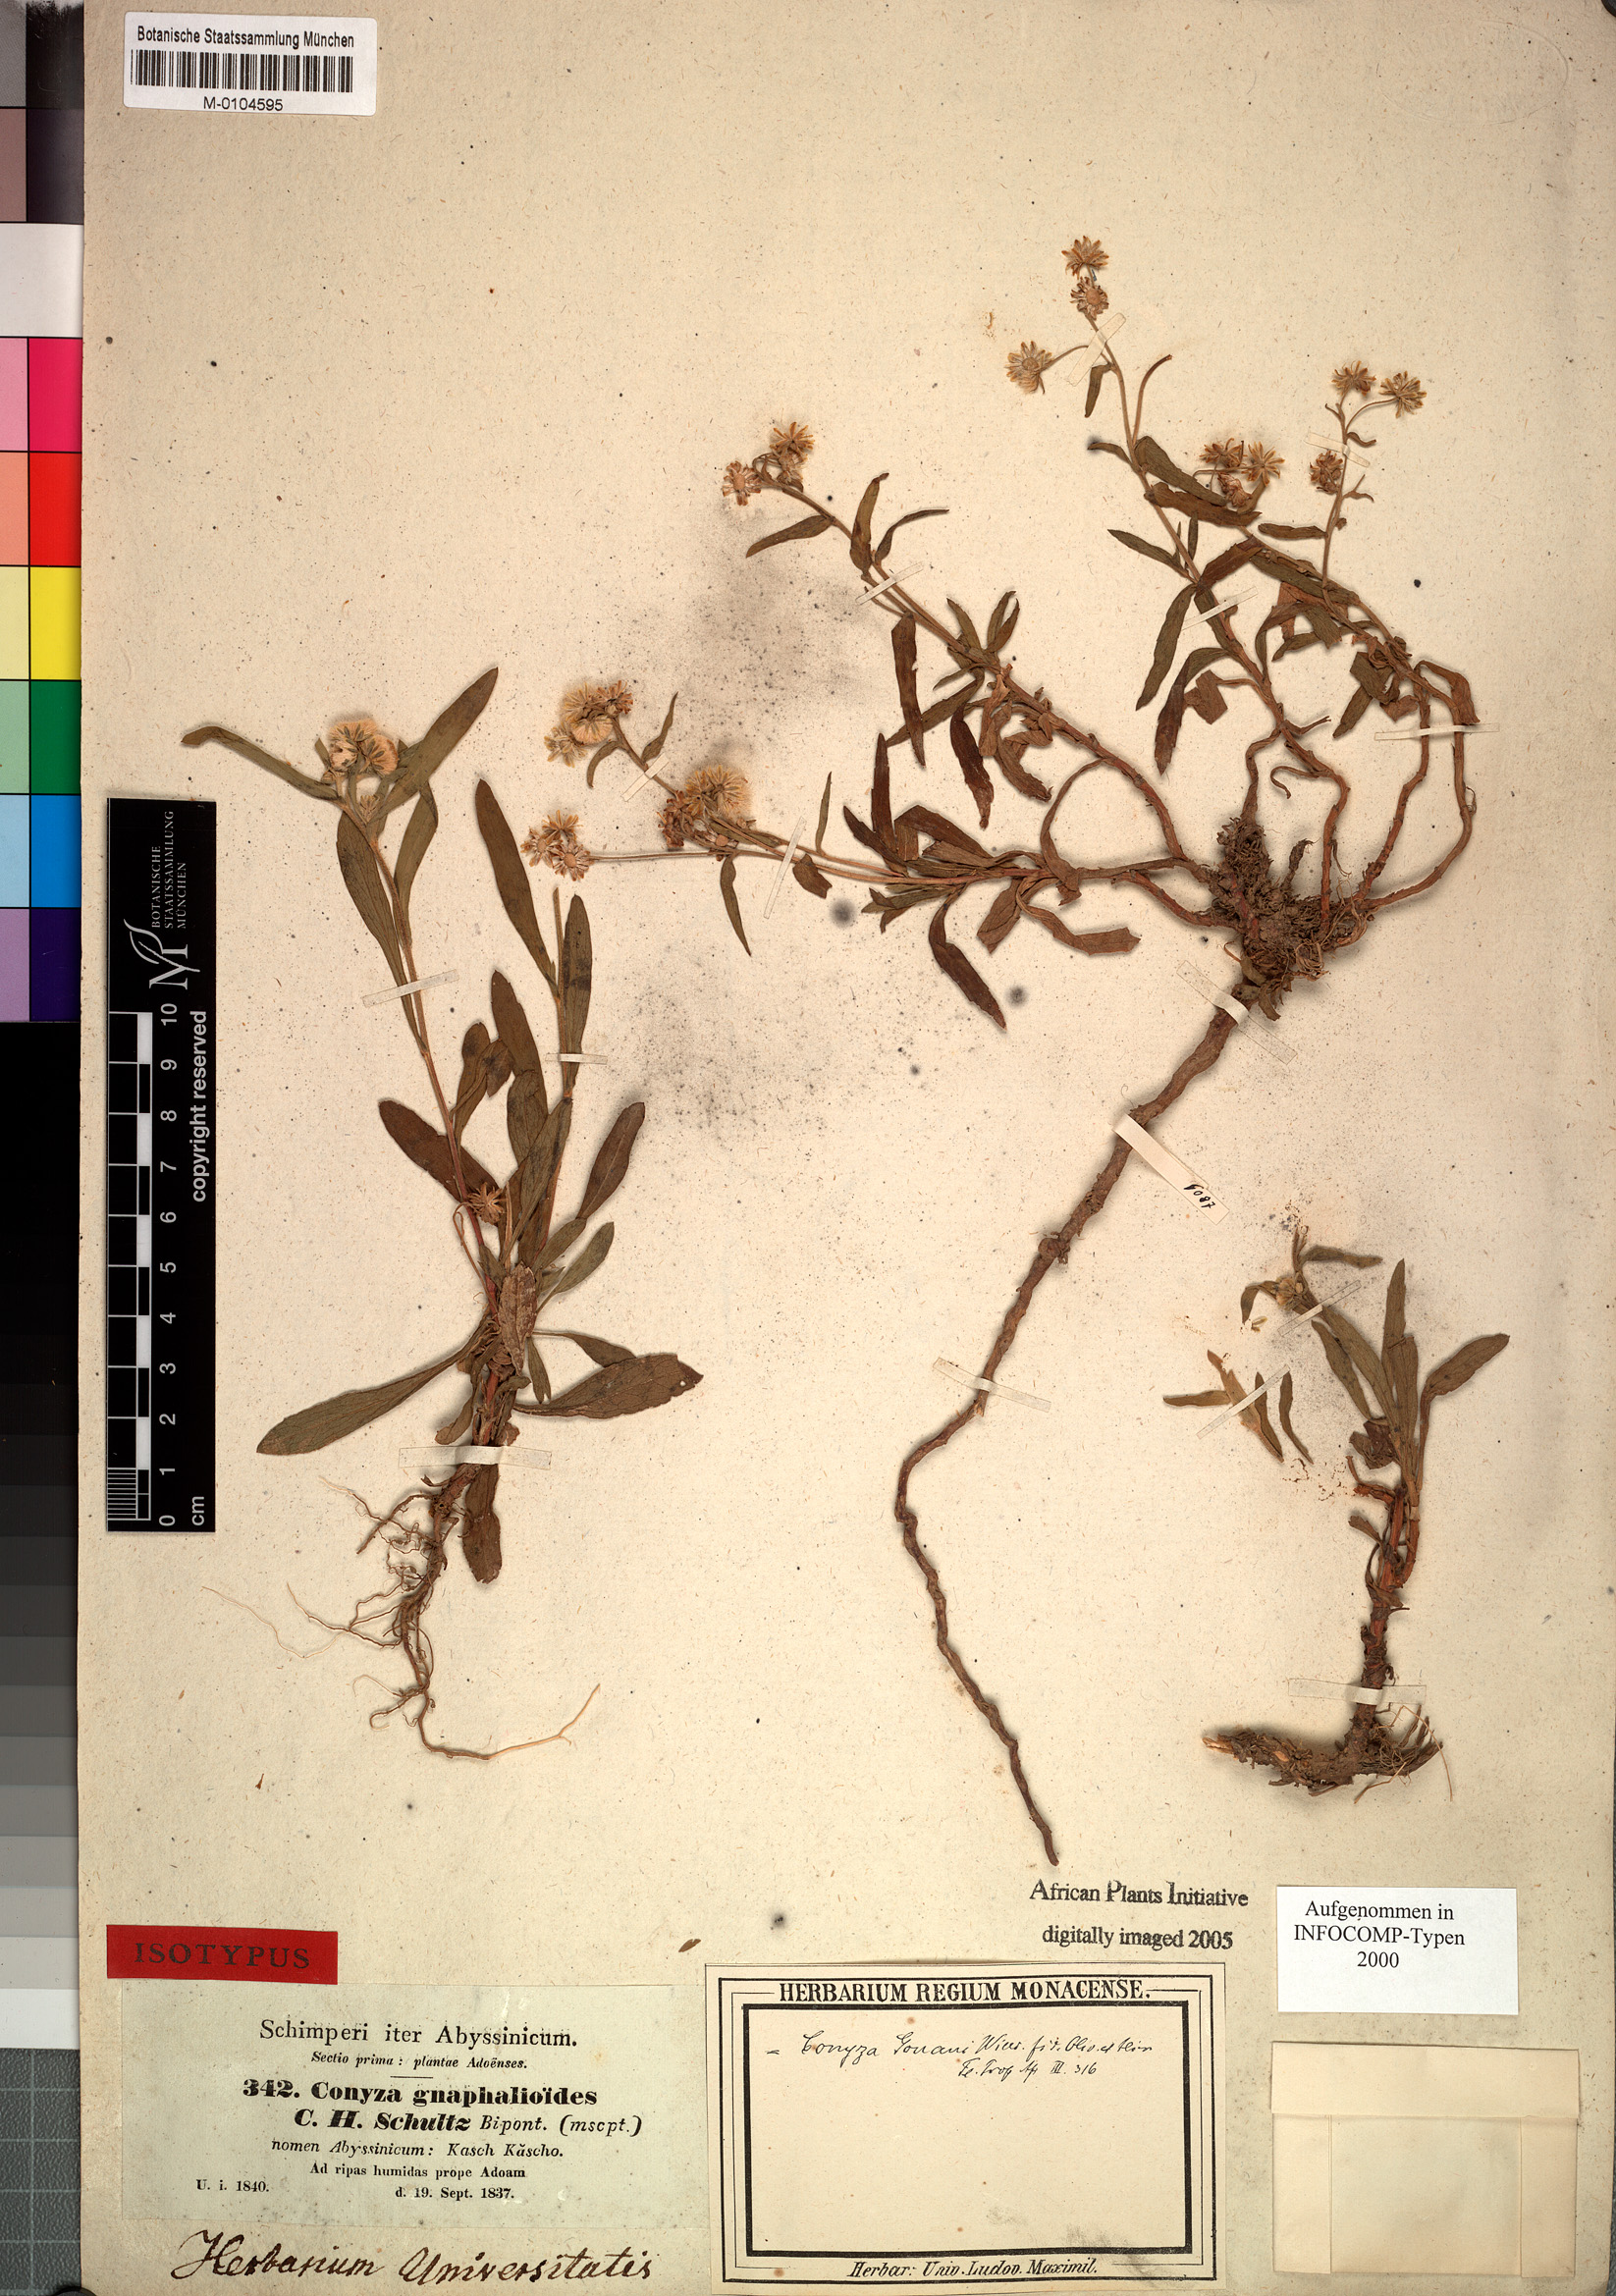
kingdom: Plantae
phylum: Tracheophyta
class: Magnoliopsida
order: Asterales
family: Asteraceae
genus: Eschenbachia
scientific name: Eschenbachia gouanii
